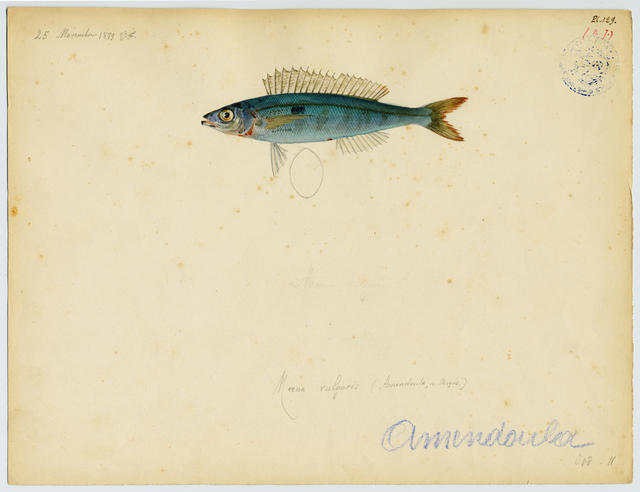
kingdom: Animalia
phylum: Chordata
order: Perciformes
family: Sparidae
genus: Spicara
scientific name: Spicara smaris
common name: Picarel
